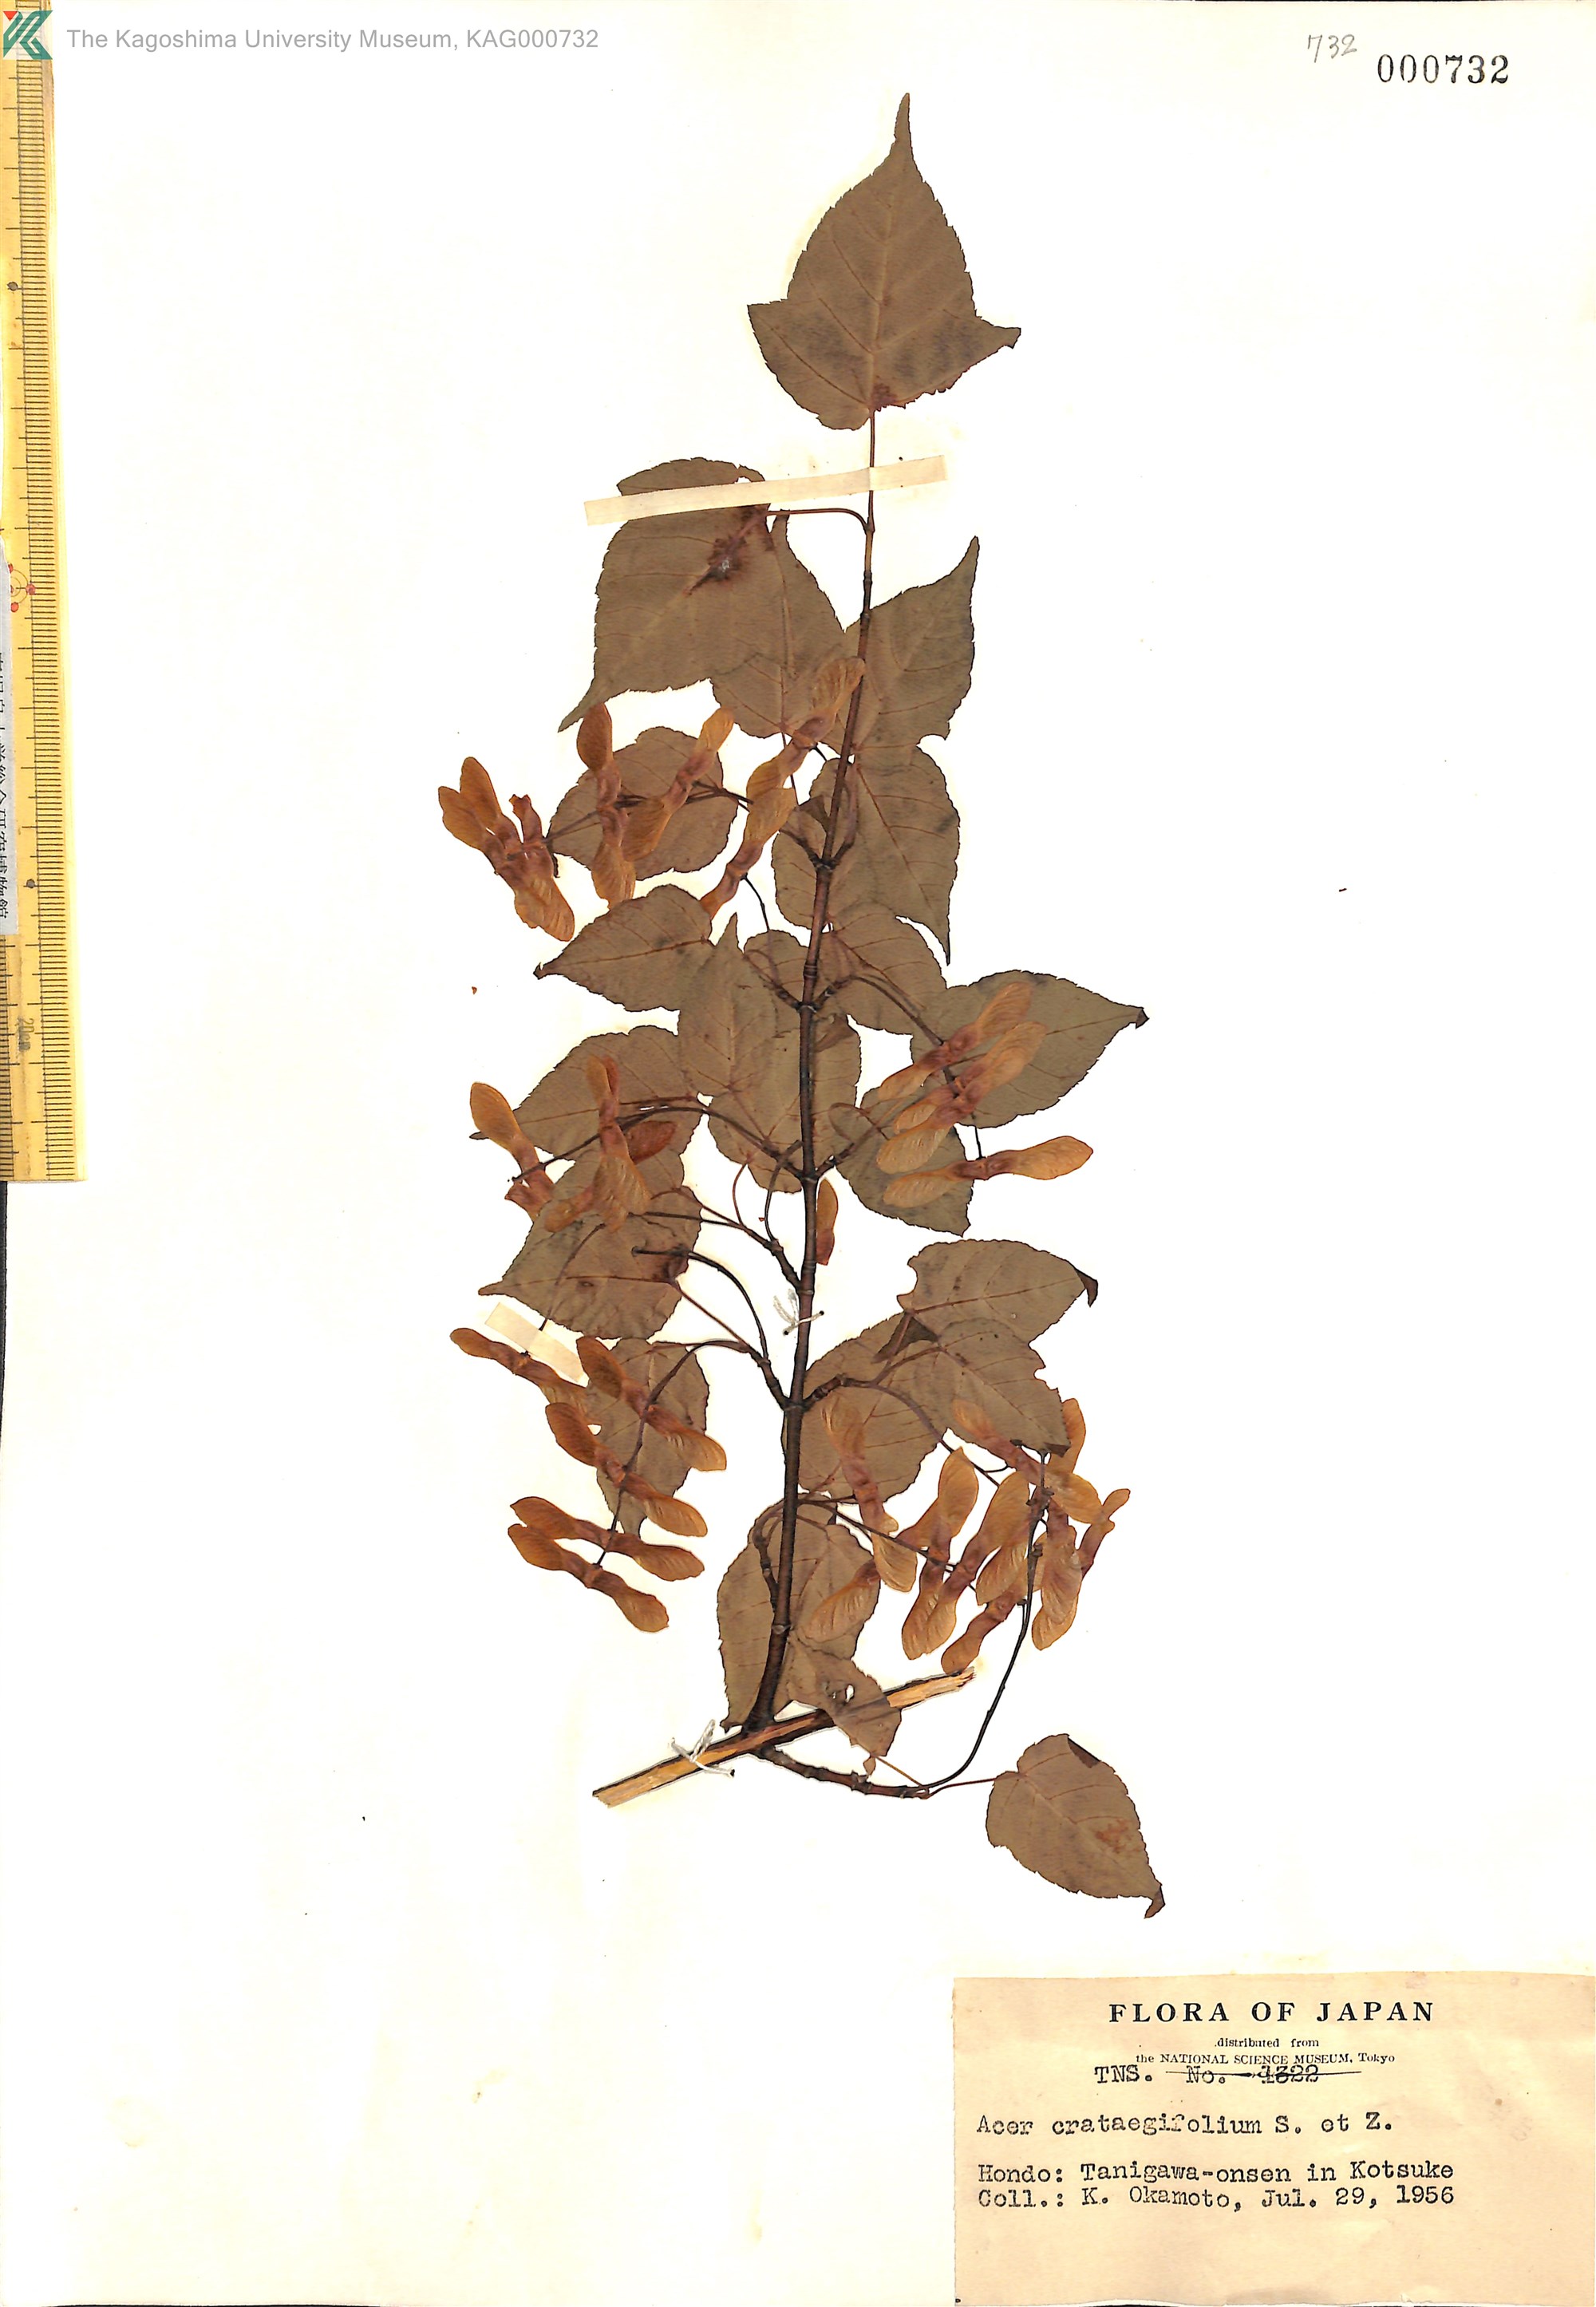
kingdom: Plantae
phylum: Tracheophyta
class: Magnoliopsida
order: Sapindales
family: Sapindaceae
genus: Acer
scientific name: Acer crataegifolium
